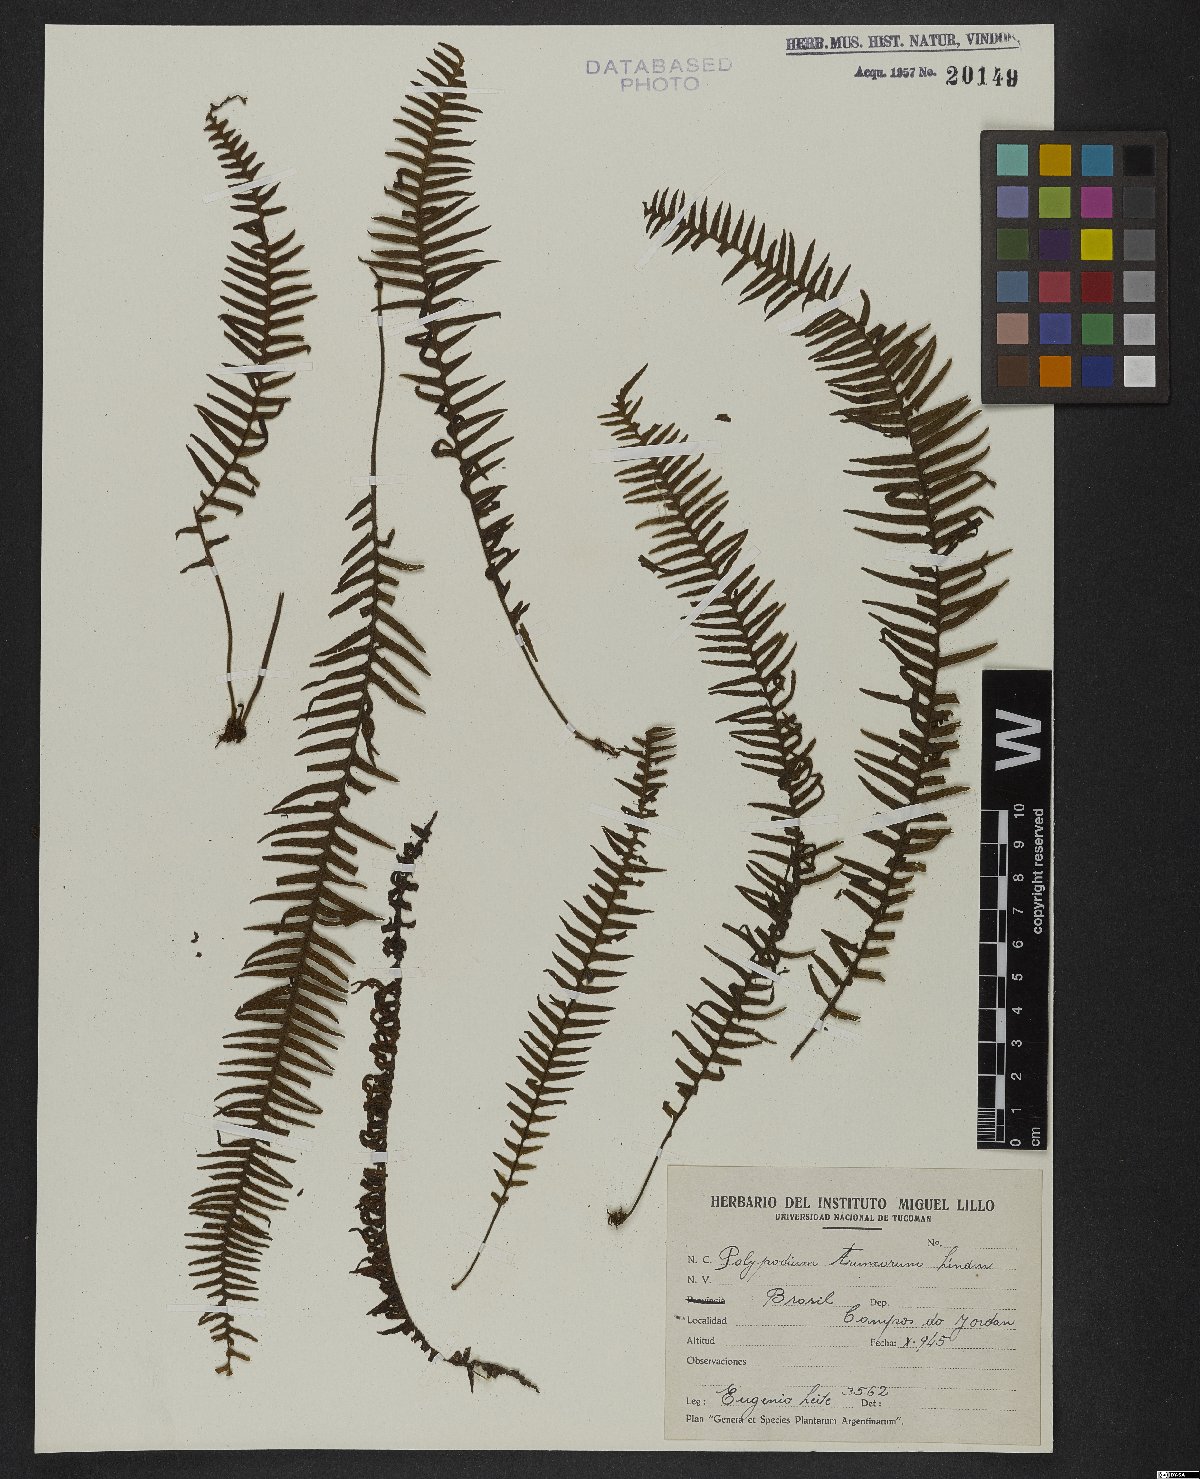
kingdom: Plantae
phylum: Tracheophyta
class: Polypodiopsida
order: Polypodiales
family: Polypodiaceae
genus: Pecluma
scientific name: Pecluma truncorum
